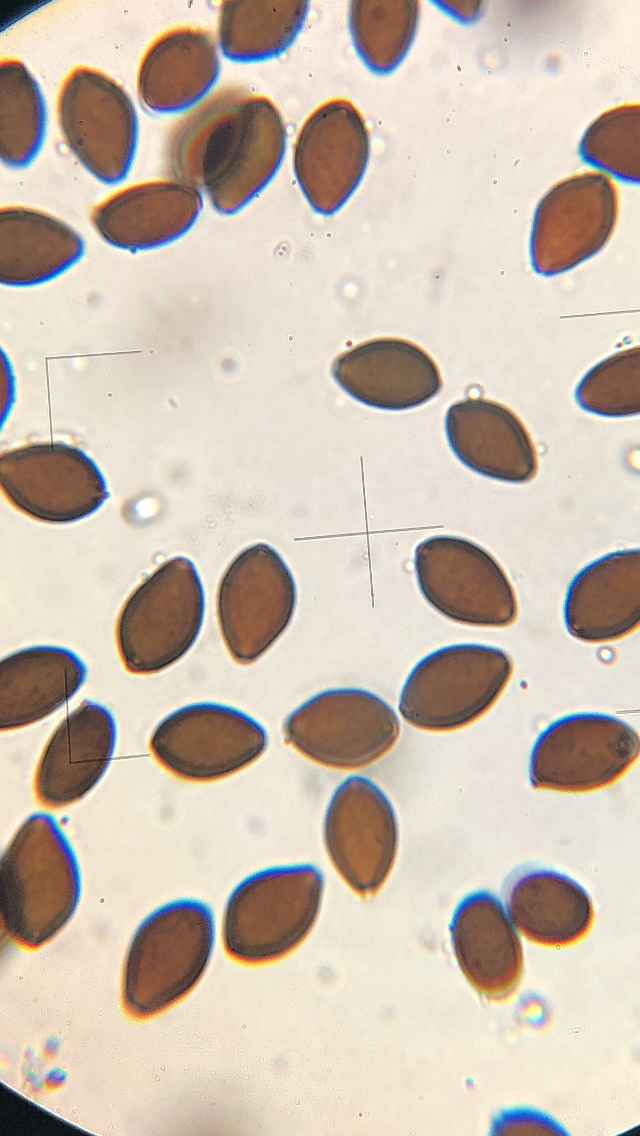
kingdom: Fungi
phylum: Basidiomycota
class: Agaricomycetes
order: Agaricales
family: Bolbitiaceae
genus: Panaeolus
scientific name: Panaeolus cinctulus
